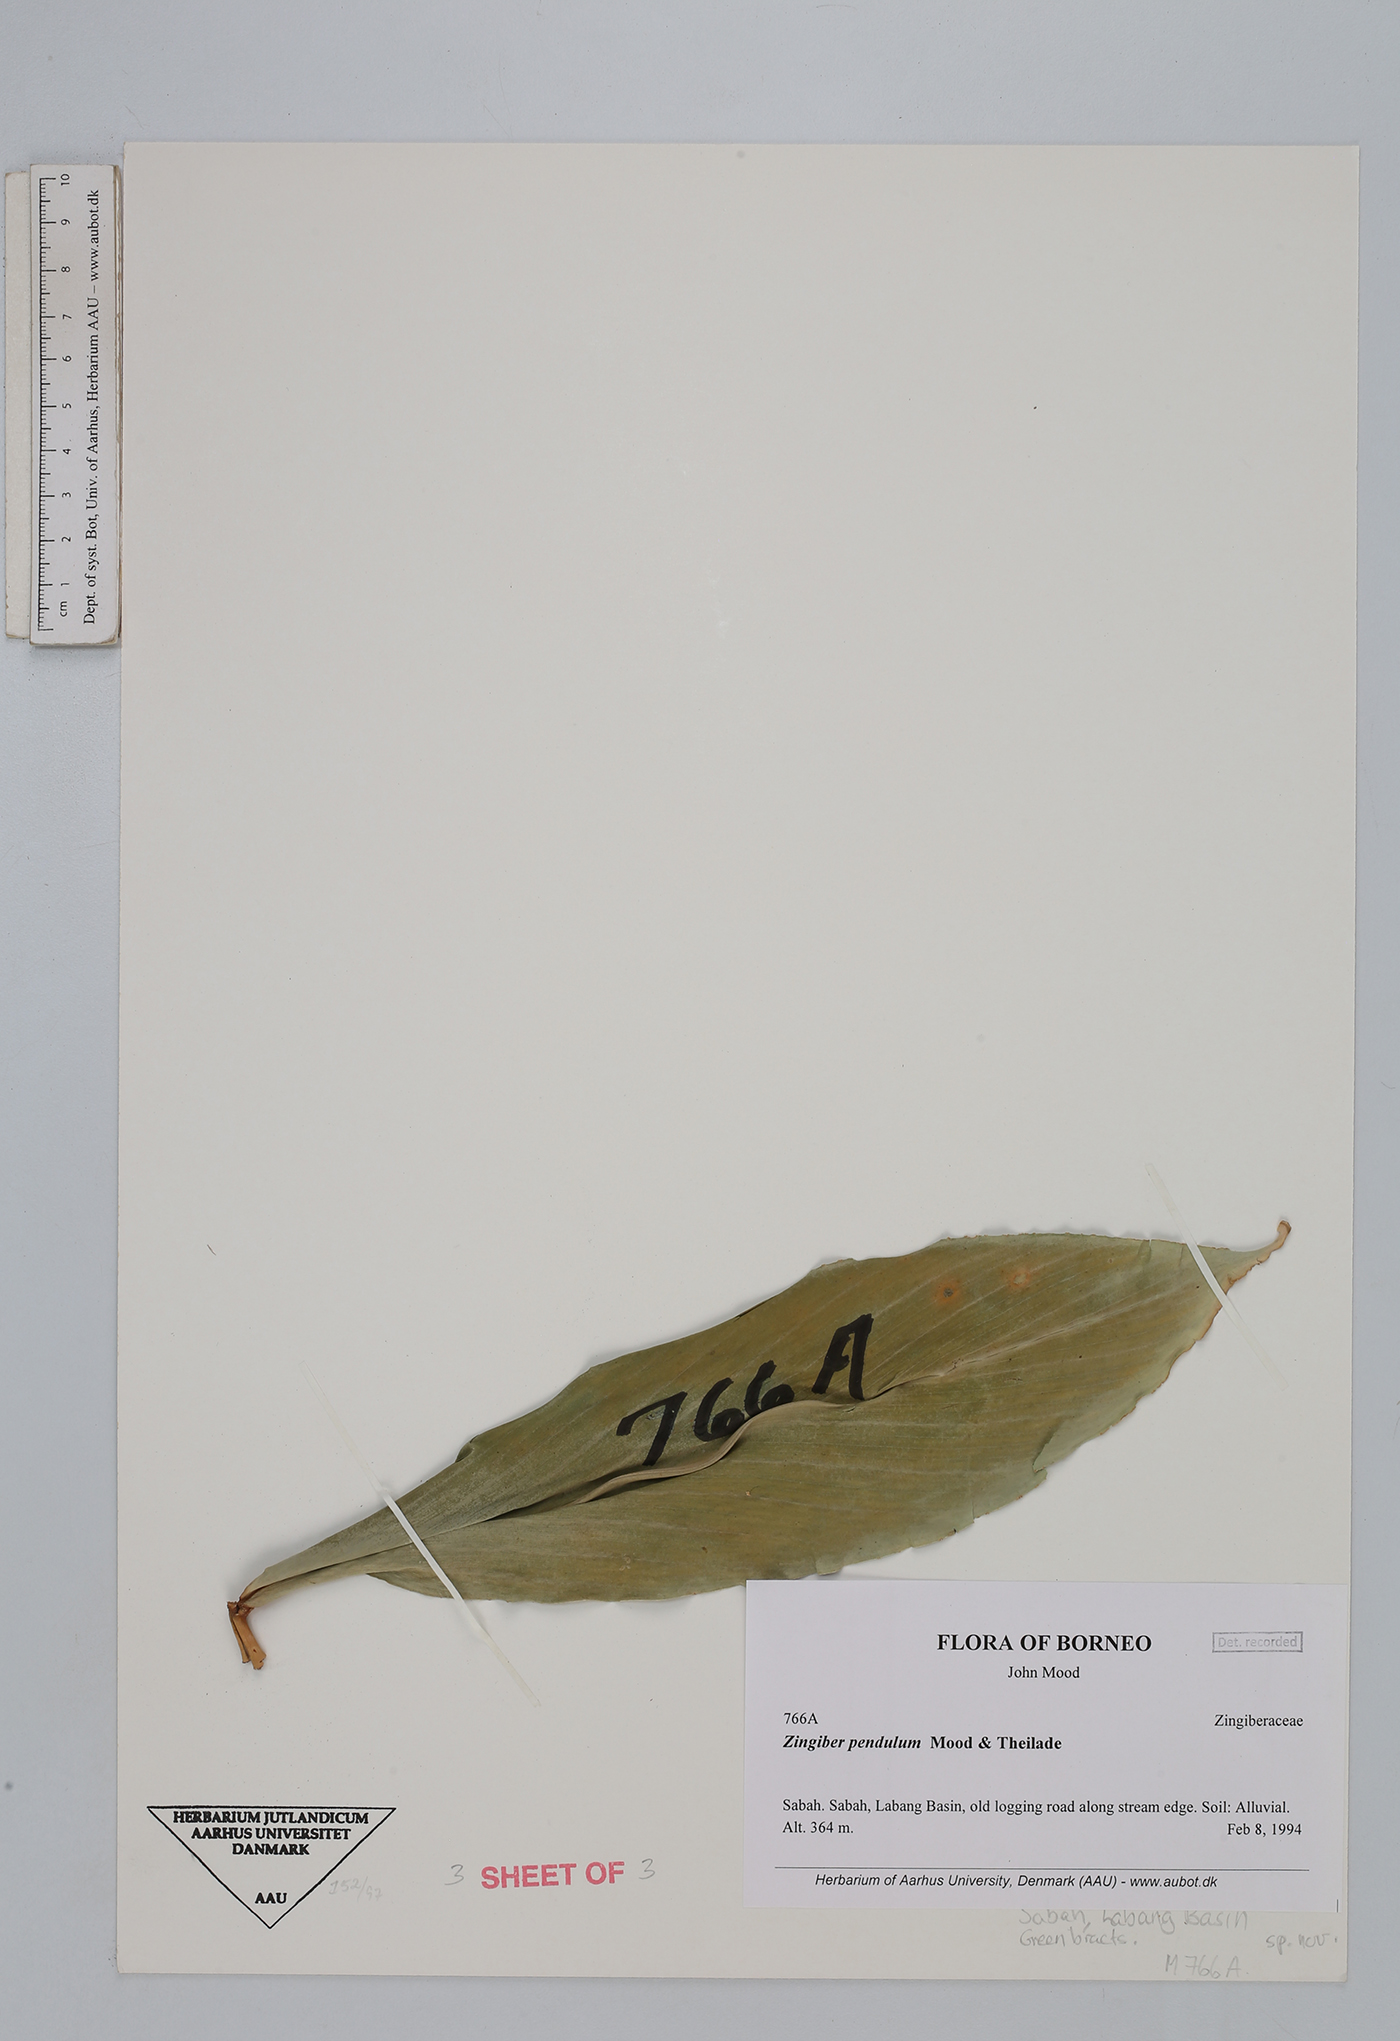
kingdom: Plantae
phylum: Tracheophyta
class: Liliopsida
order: Zingiberales
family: Zingiberaceae
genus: Zingiber
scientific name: Zingiber pendulum
